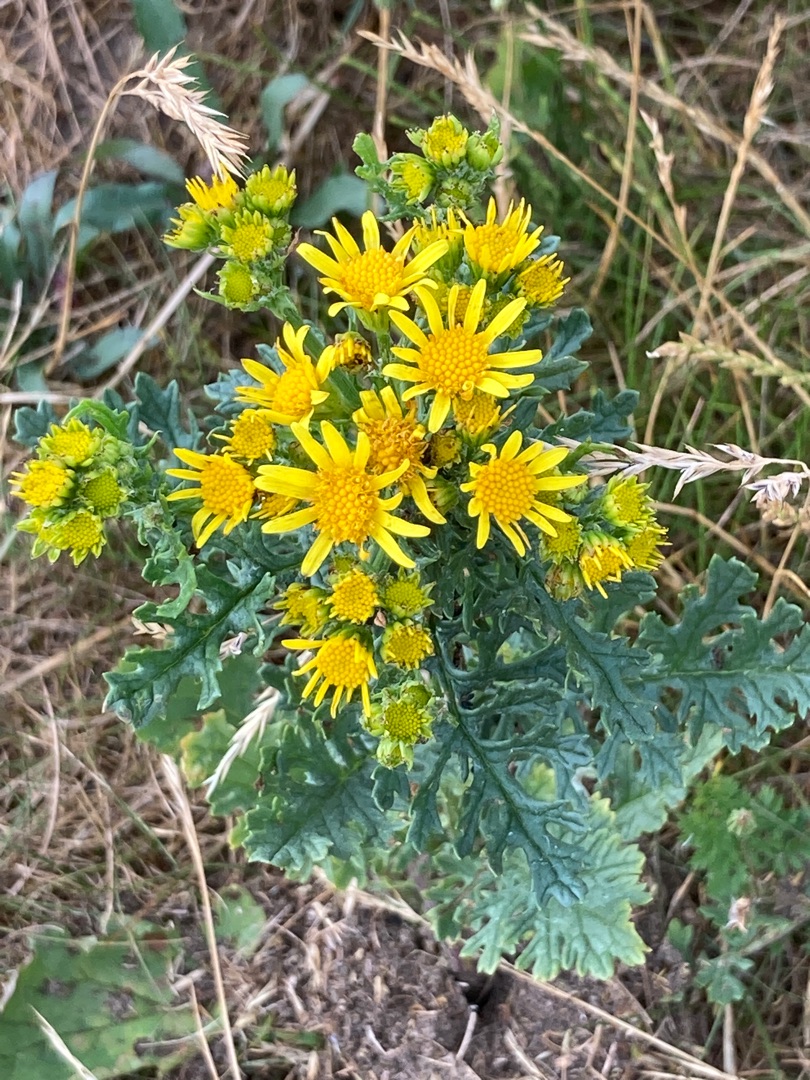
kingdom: Plantae
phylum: Tracheophyta
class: Magnoliopsida
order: Asterales
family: Asteraceae
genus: Jacobaea
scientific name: Jacobaea vulgaris
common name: Eng-brandbæger
